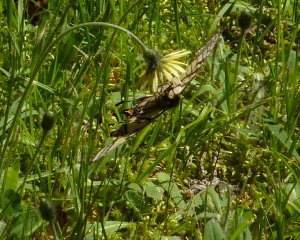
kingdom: Animalia
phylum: Arthropoda
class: Insecta
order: Lepidoptera
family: Papilionidae
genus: Pterourus
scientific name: Pterourus canadensis
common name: Canadian Tiger Swallowtail
